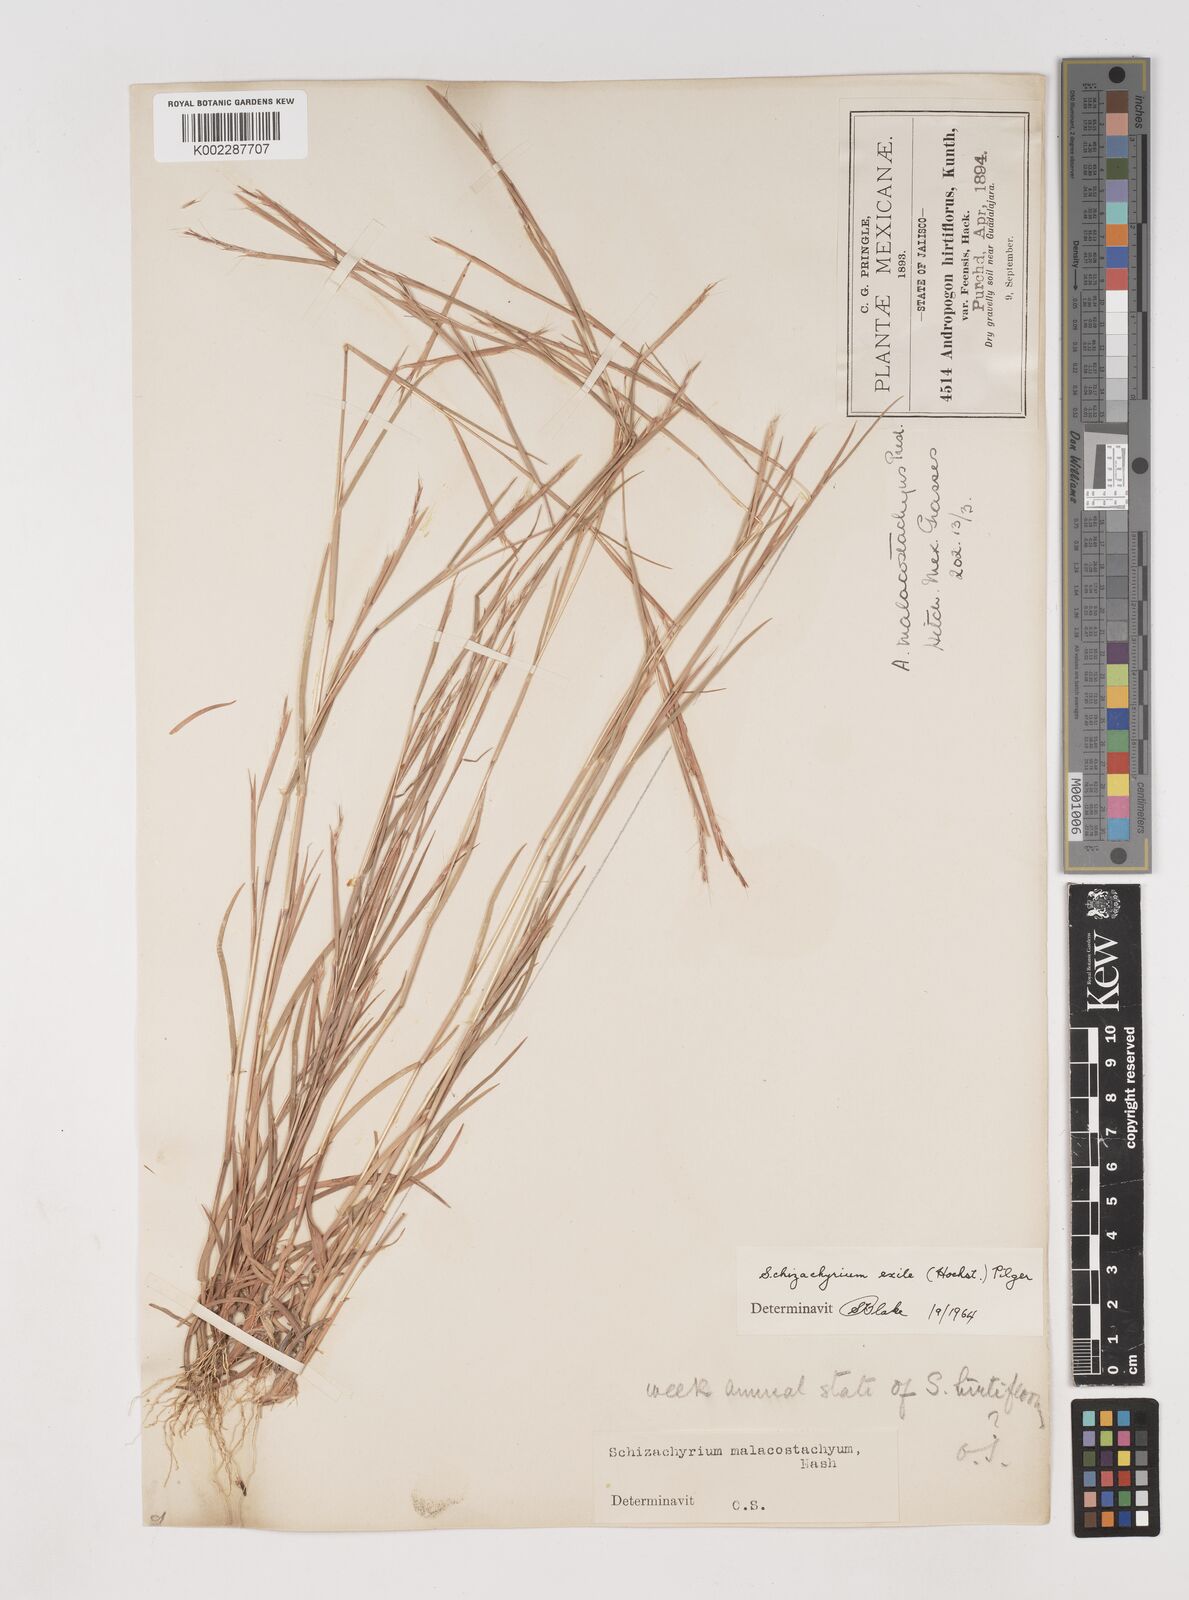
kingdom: Plantae
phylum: Tracheophyta
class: Liliopsida
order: Poales
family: Poaceae
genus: Schizachyrium
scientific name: Schizachyrium exile
